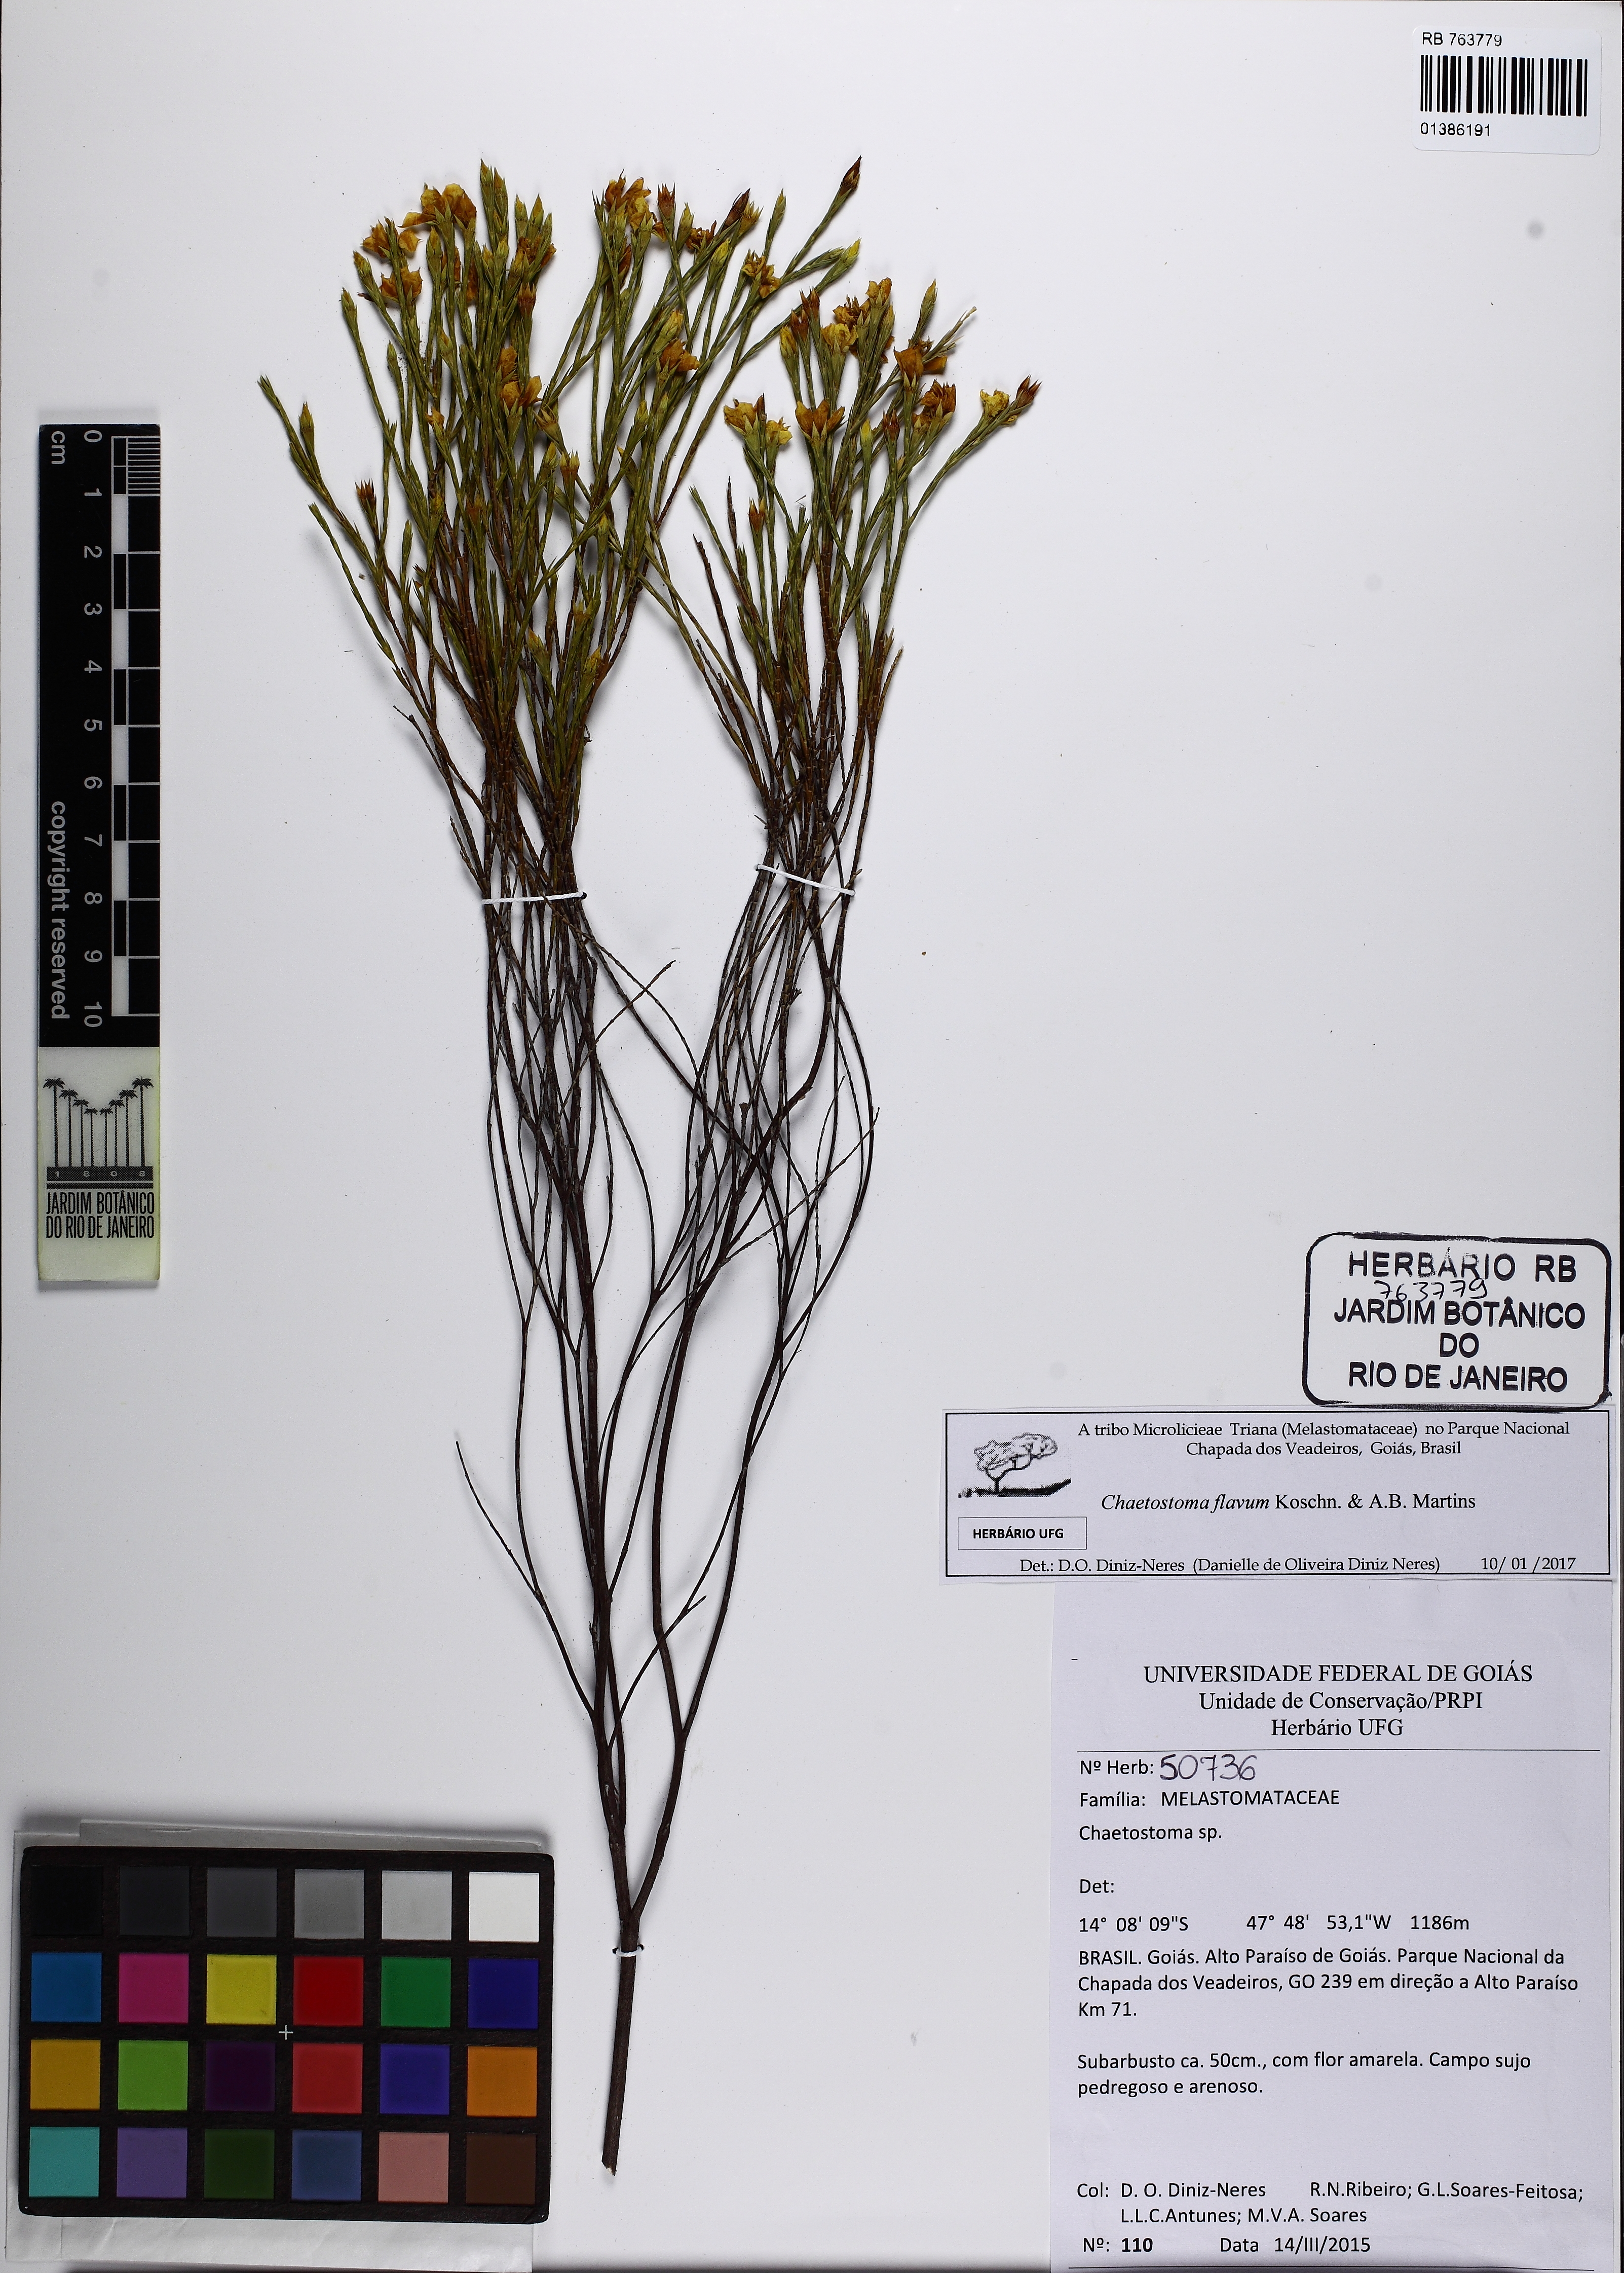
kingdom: Plantae
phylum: Tracheophyta
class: Magnoliopsida
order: Myrtales
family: Melastomataceae
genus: Microlicia
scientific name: Microlicia flavipetala
